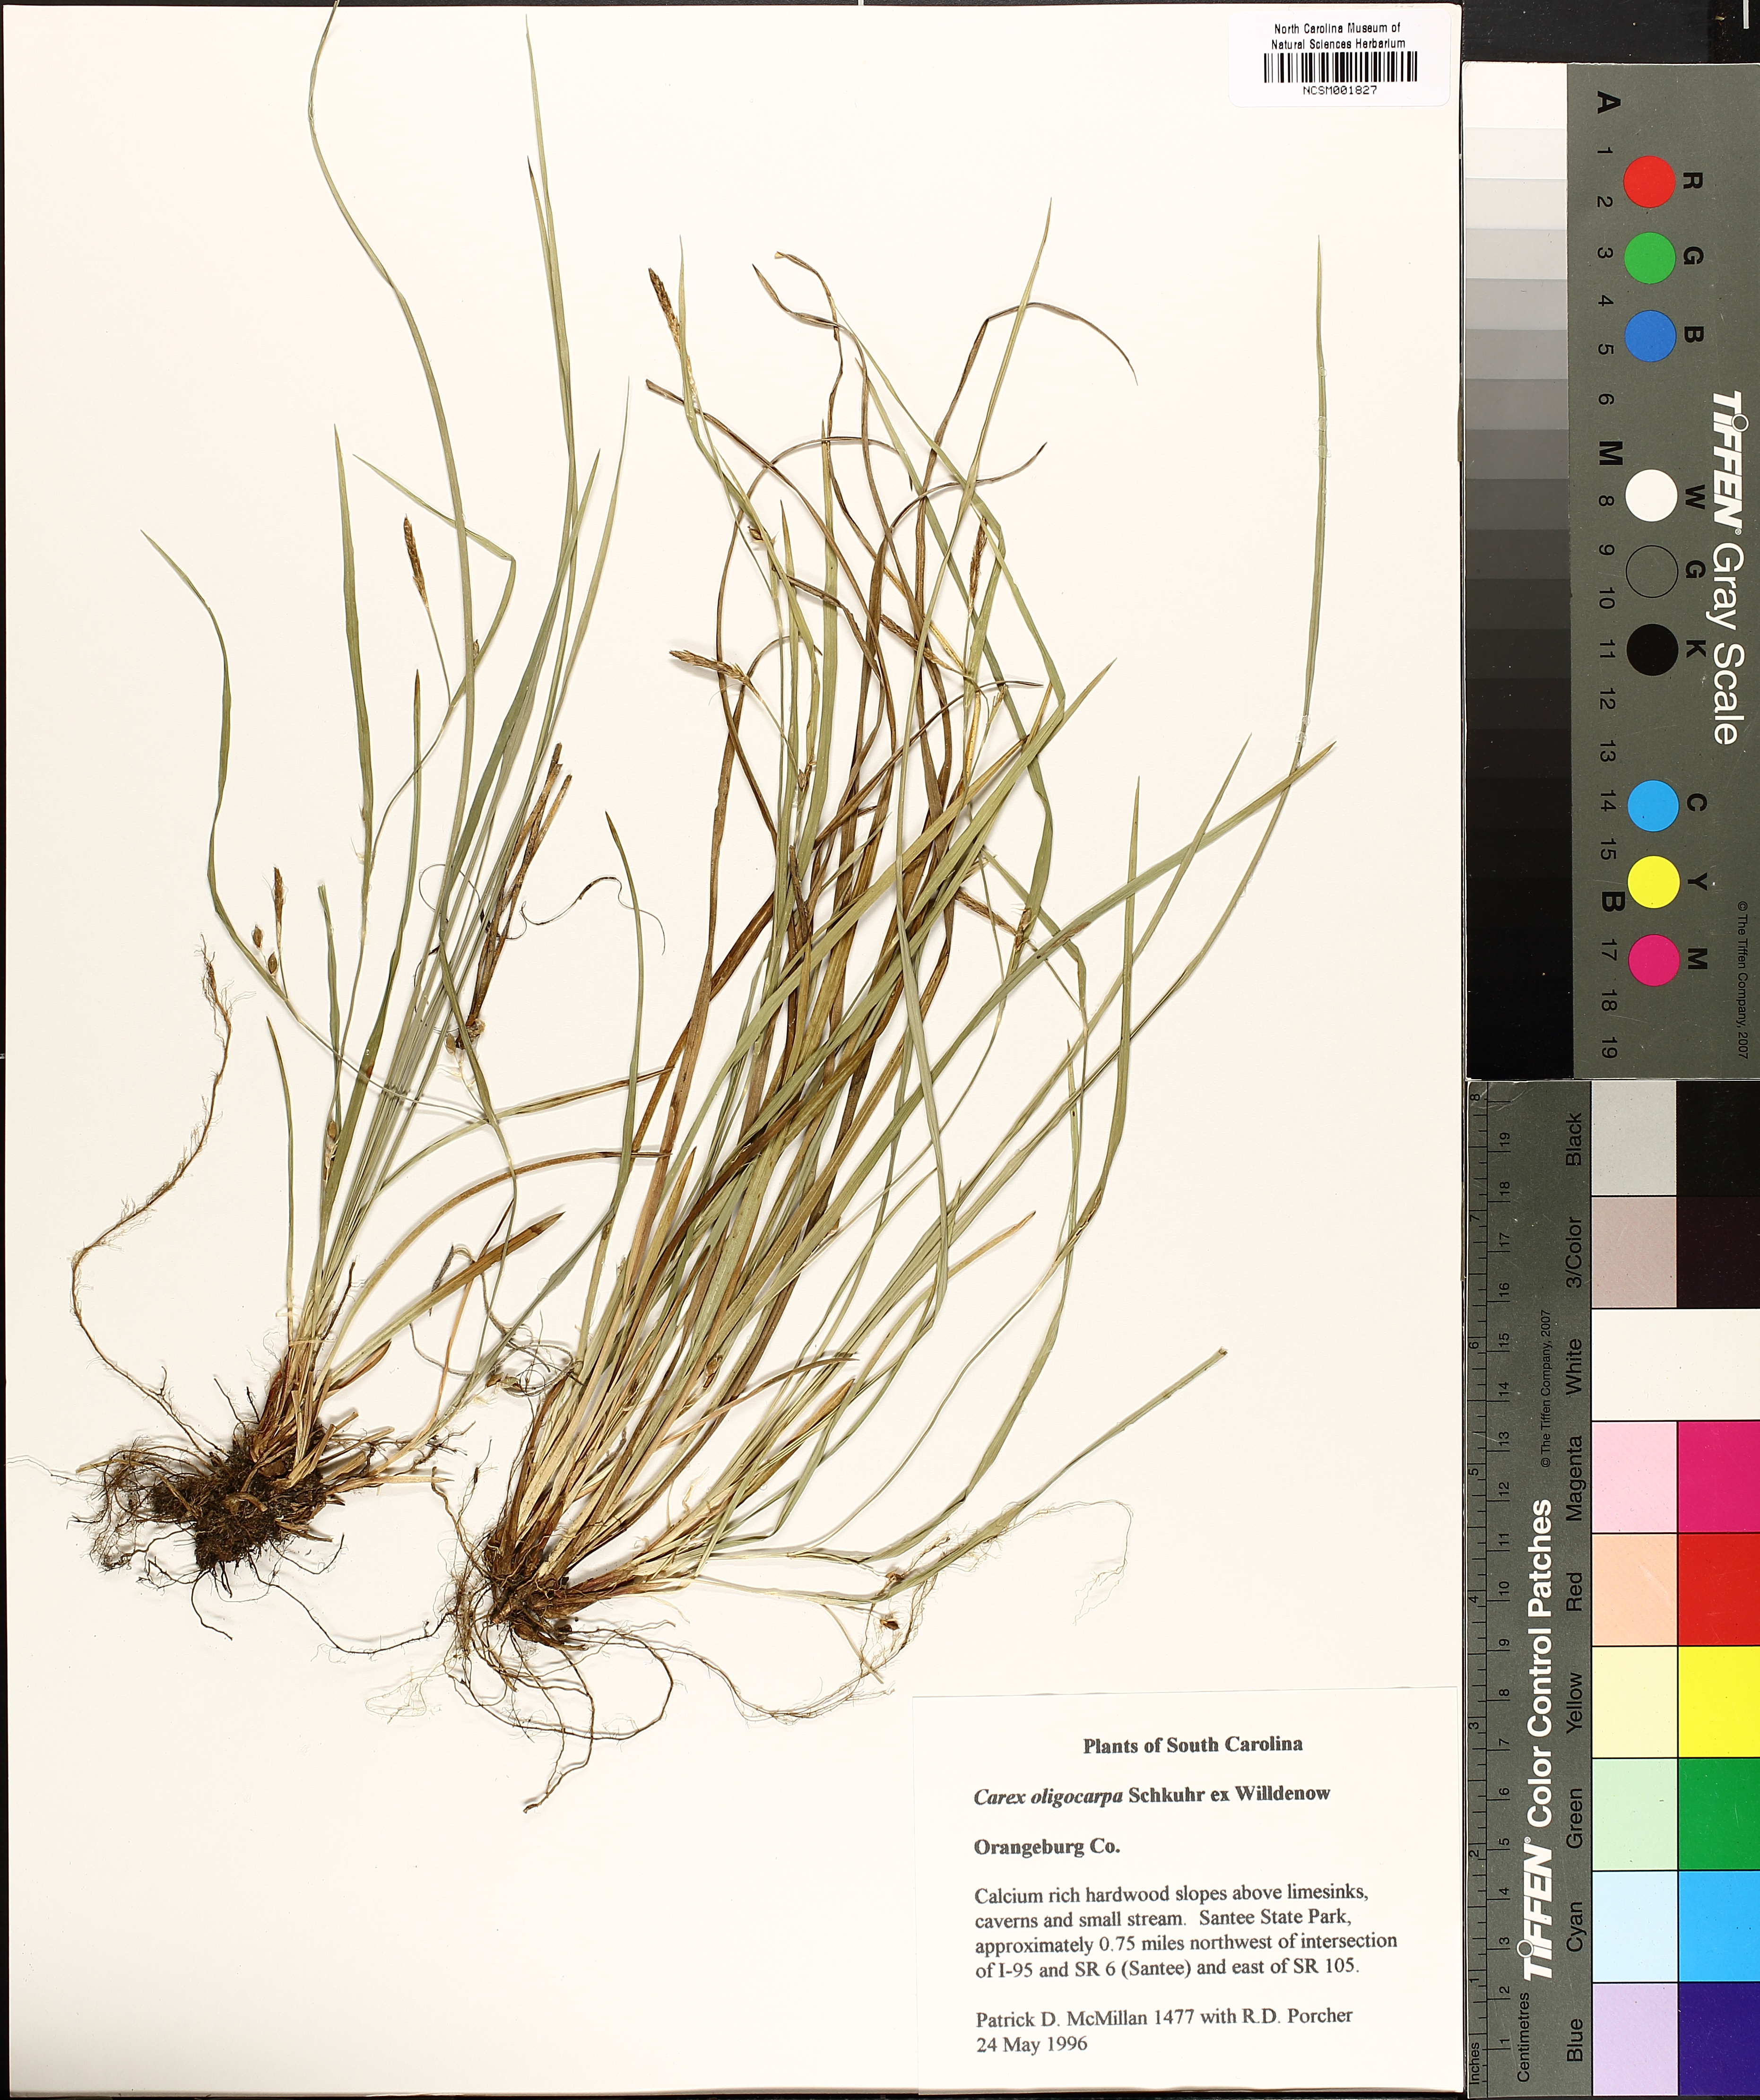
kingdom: Plantae
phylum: Tracheophyta
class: Liliopsida
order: Poales
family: Cyperaceae
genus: Carex
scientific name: Carex oligocarpa
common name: Eastern few-fruited sedge
